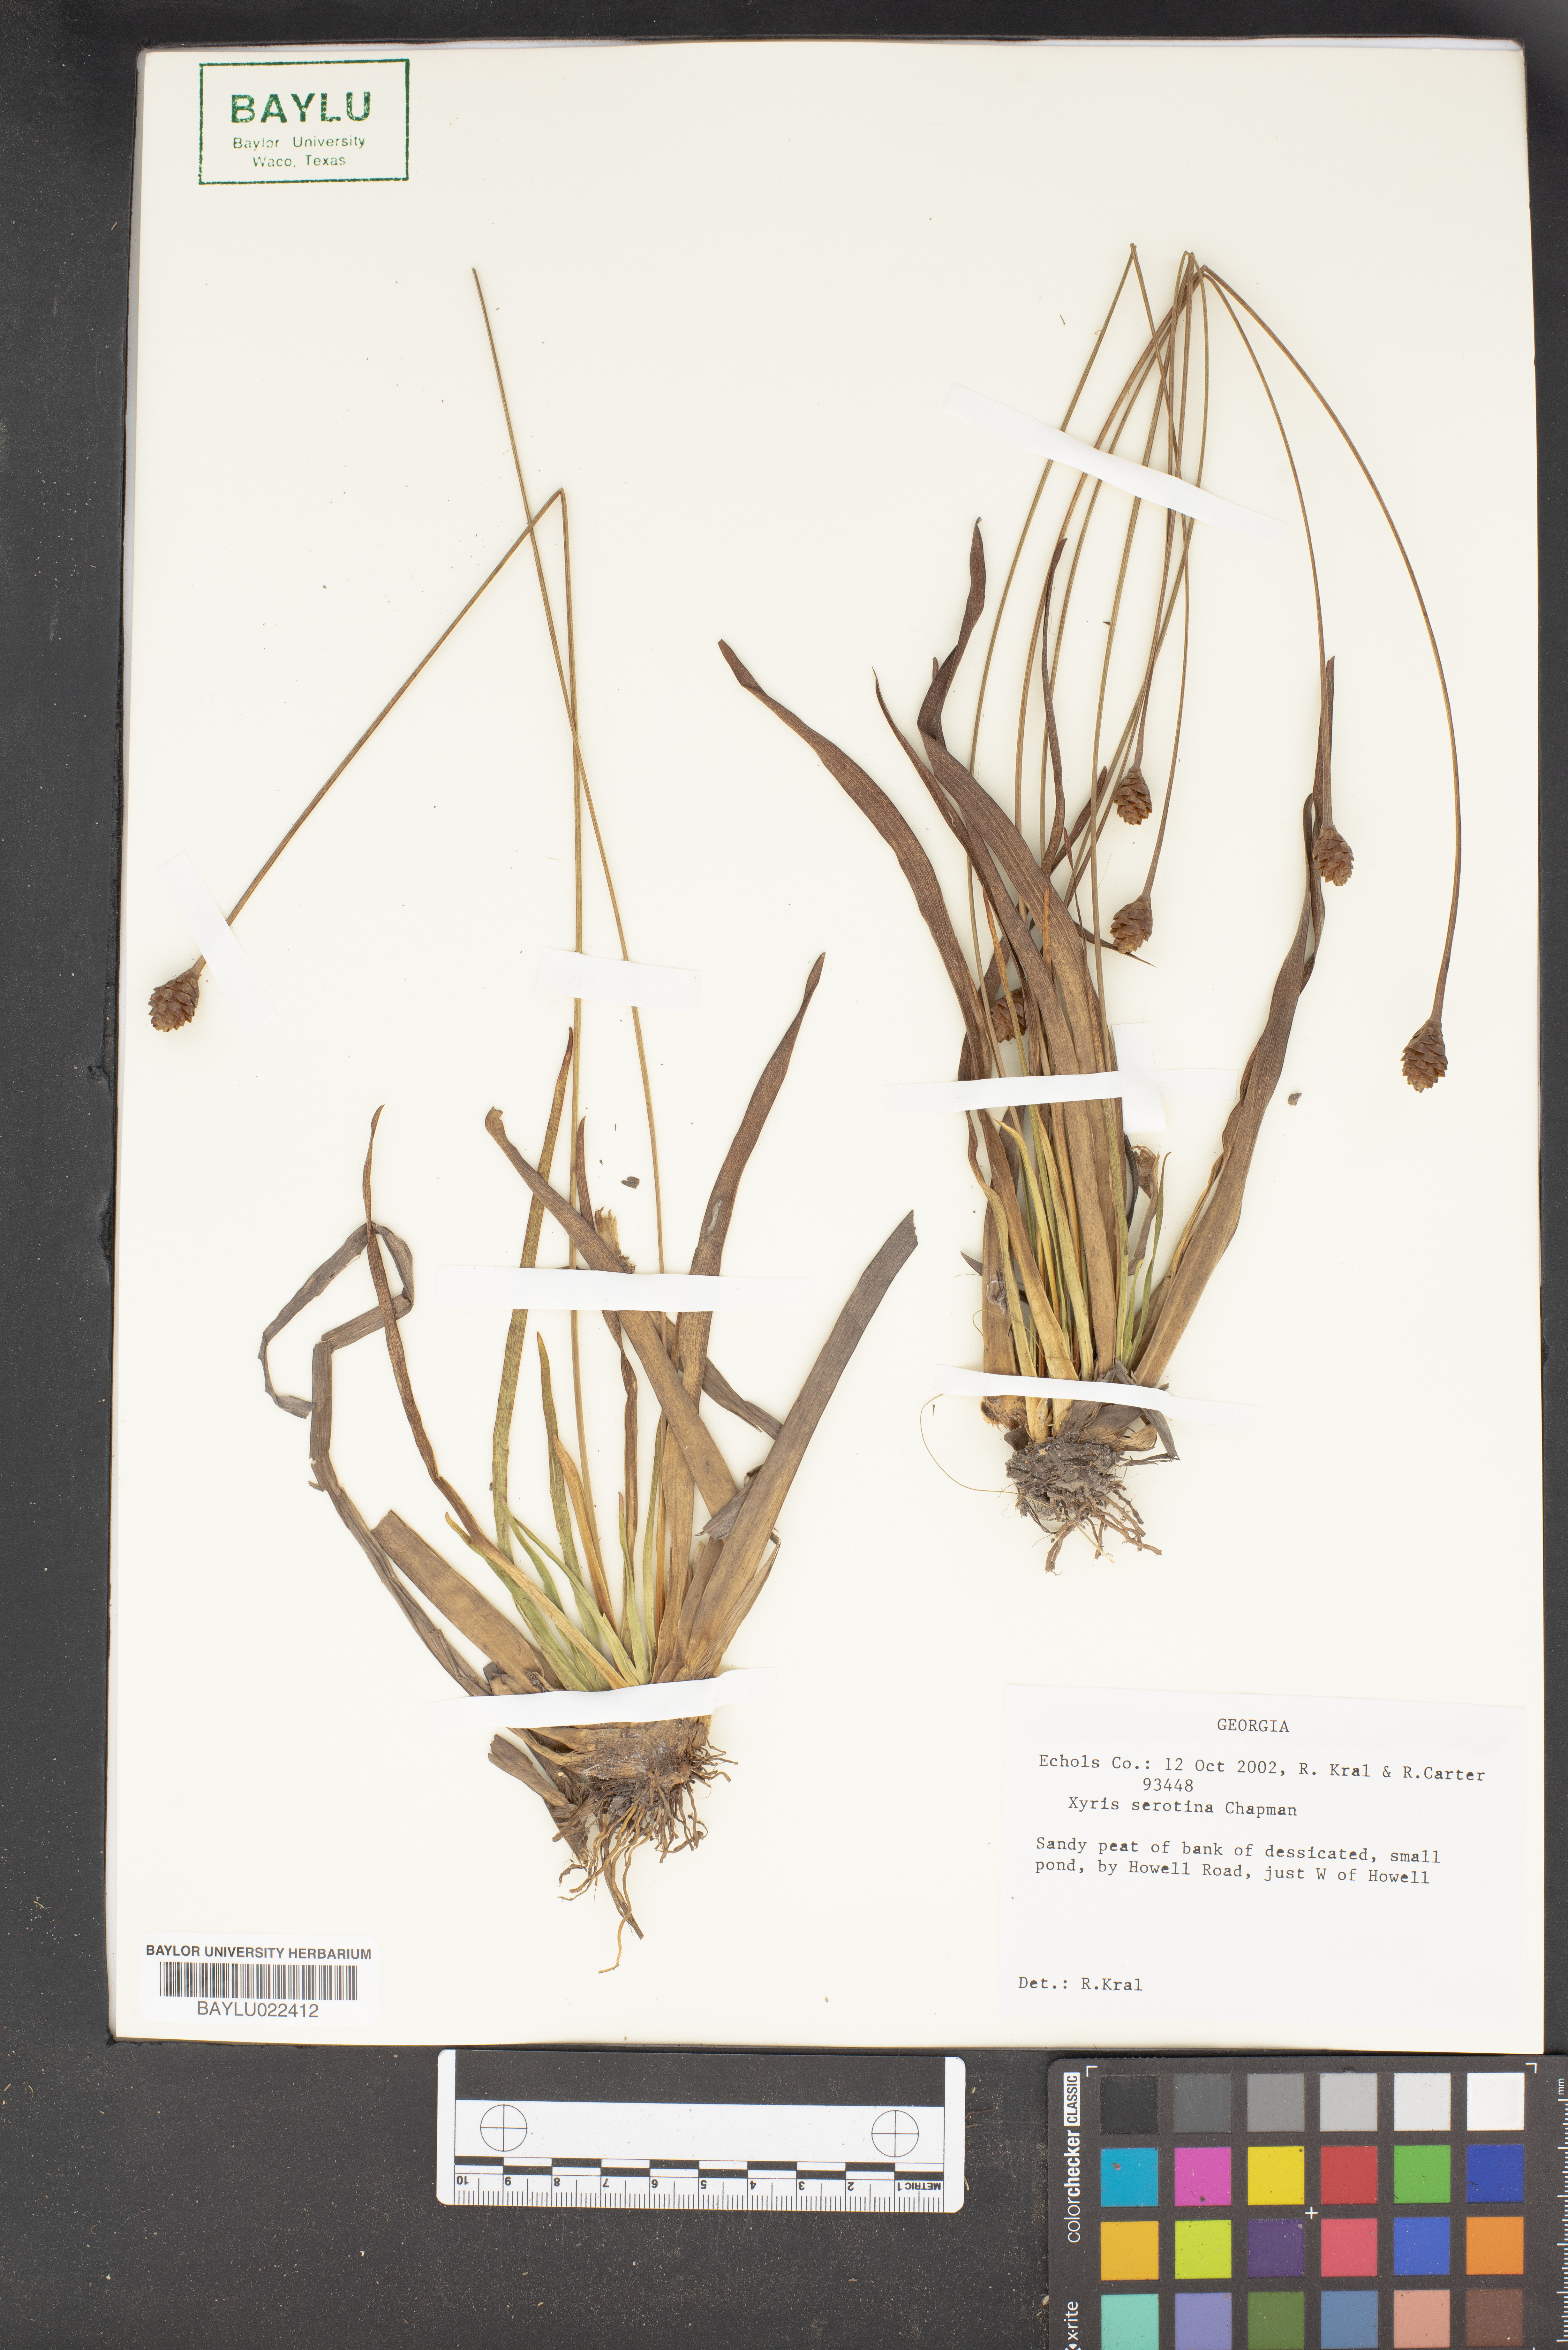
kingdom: Plantae
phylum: Tracheophyta
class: Liliopsida
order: Poales
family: Xyridaceae
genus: Xyris
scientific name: Xyris serotina
